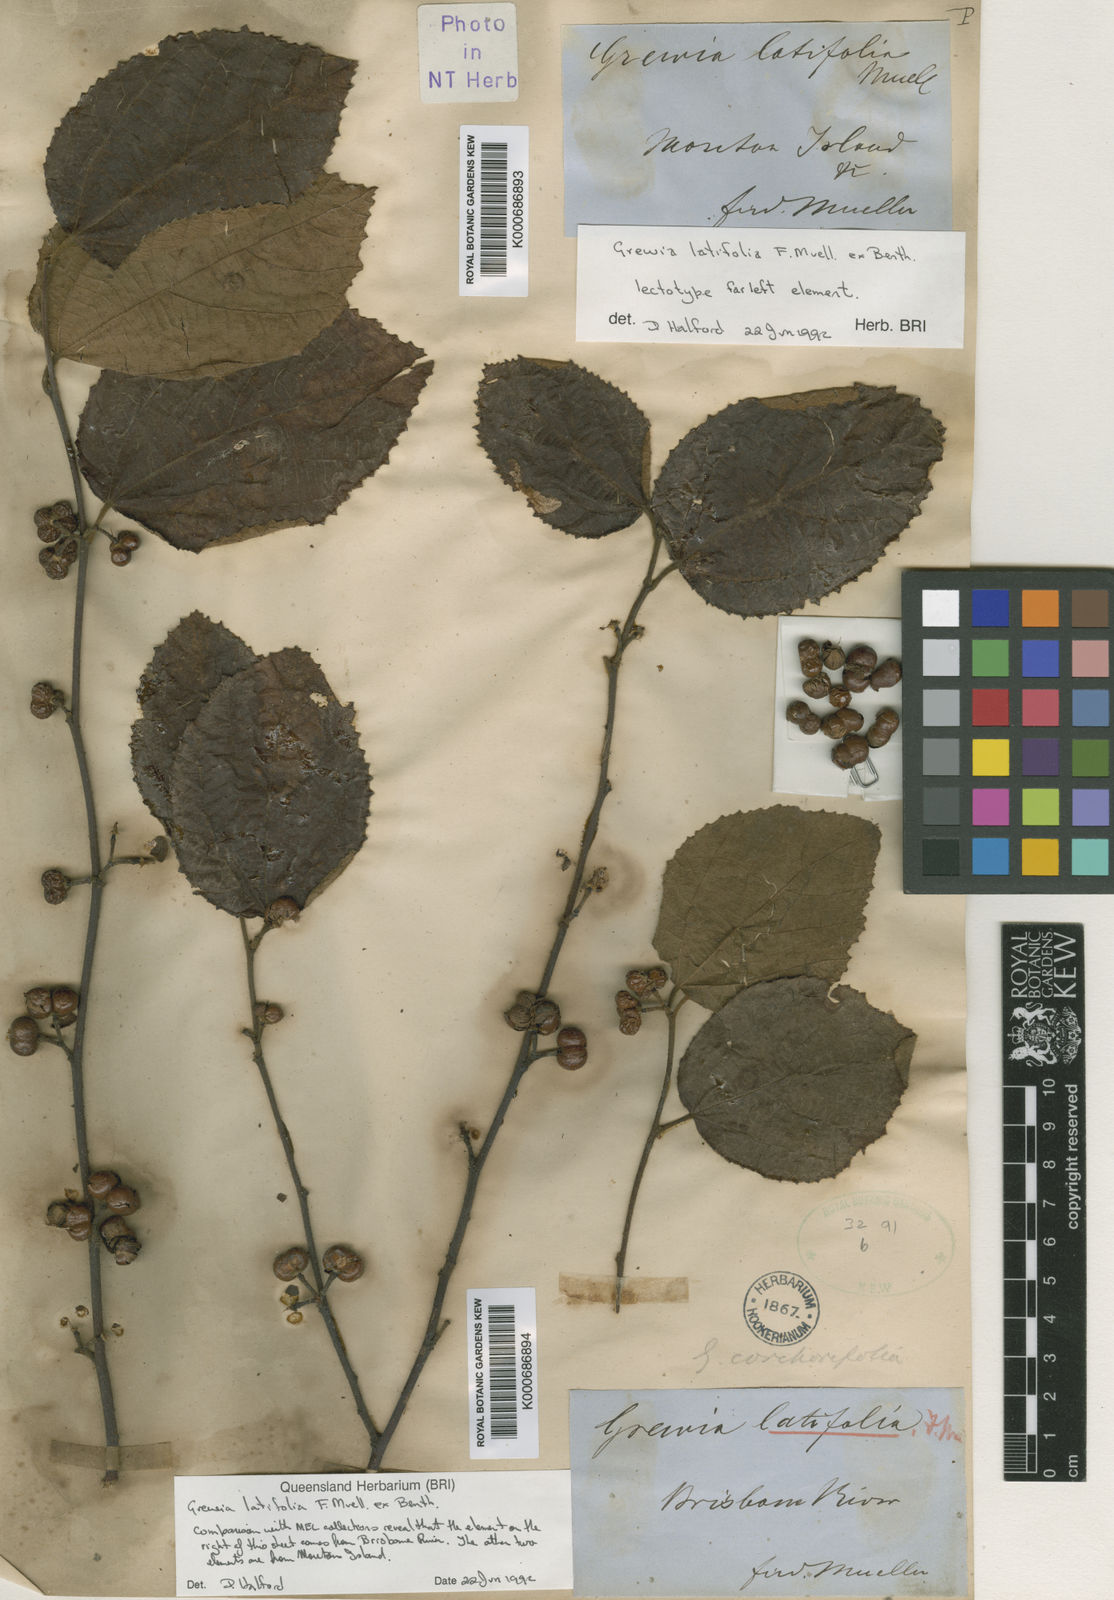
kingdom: Plantae
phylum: Tracheophyta
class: Magnoliopsida
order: Malvales
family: Malvaceae
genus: Grewia
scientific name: Grewia apetala
